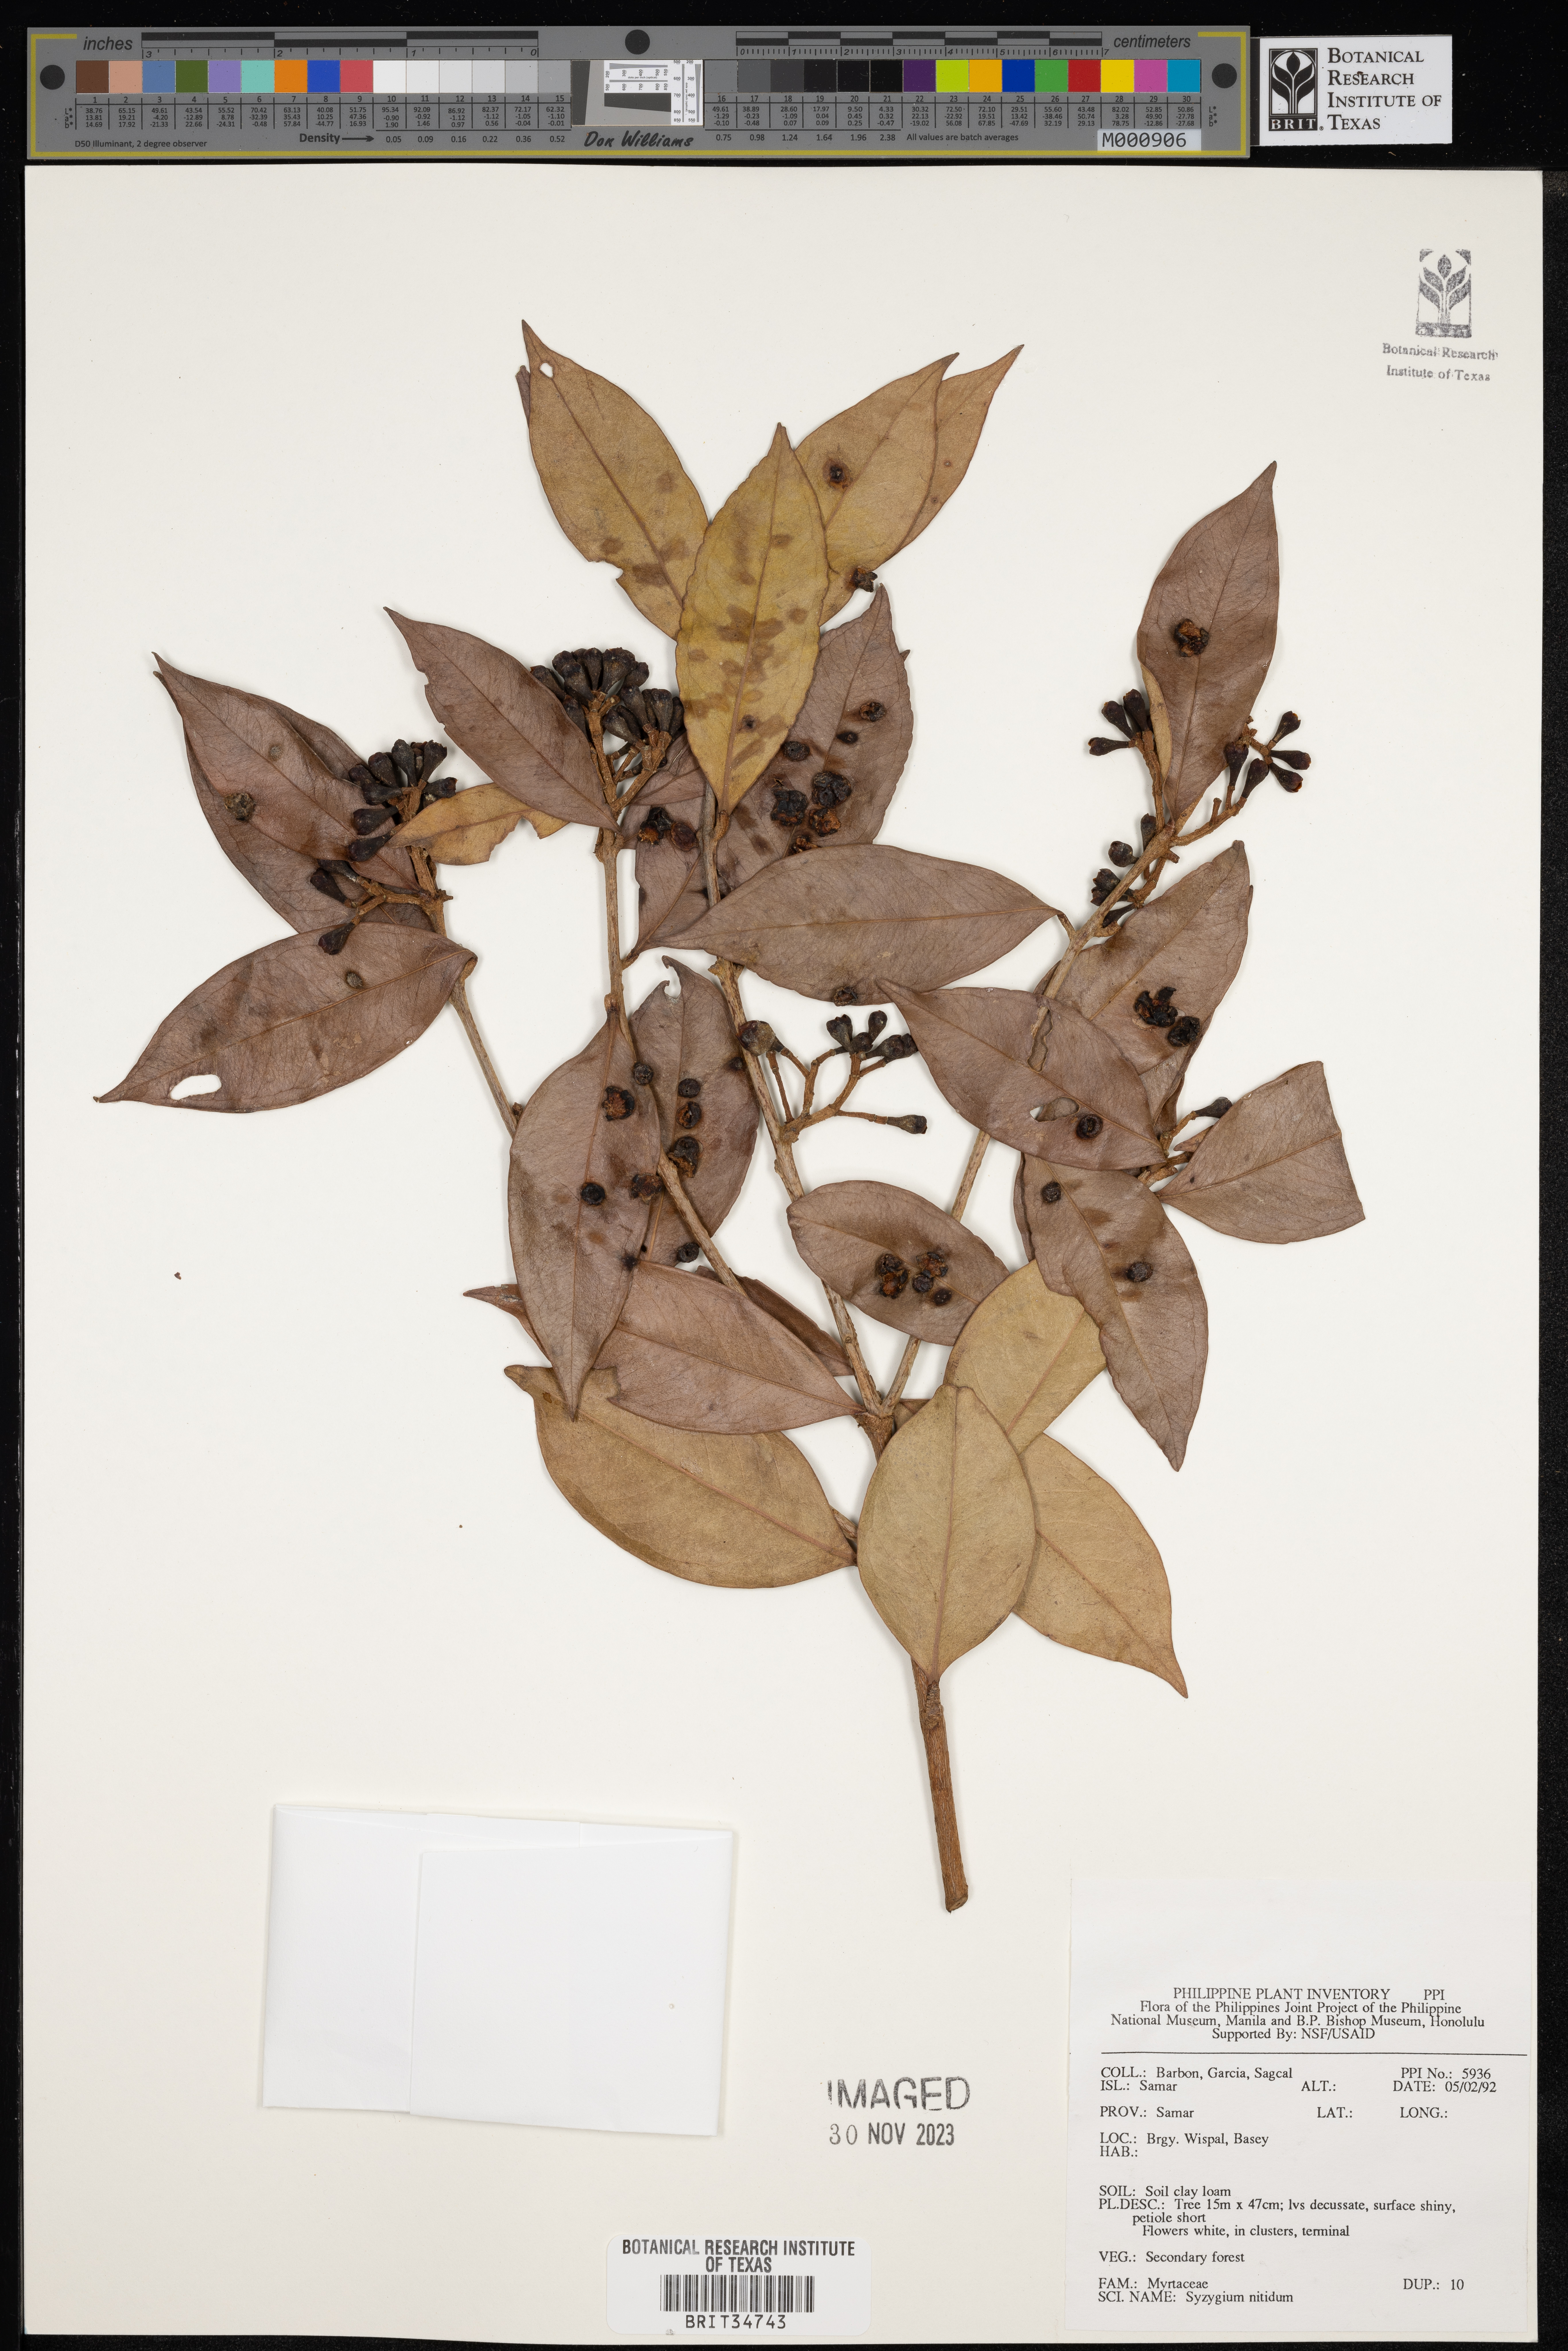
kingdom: Plantae
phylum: Tracheophyta
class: Magnoliopsida
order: Myrtales
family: Myrtaceae
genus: Syzygium
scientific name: Syzygium nitidum
